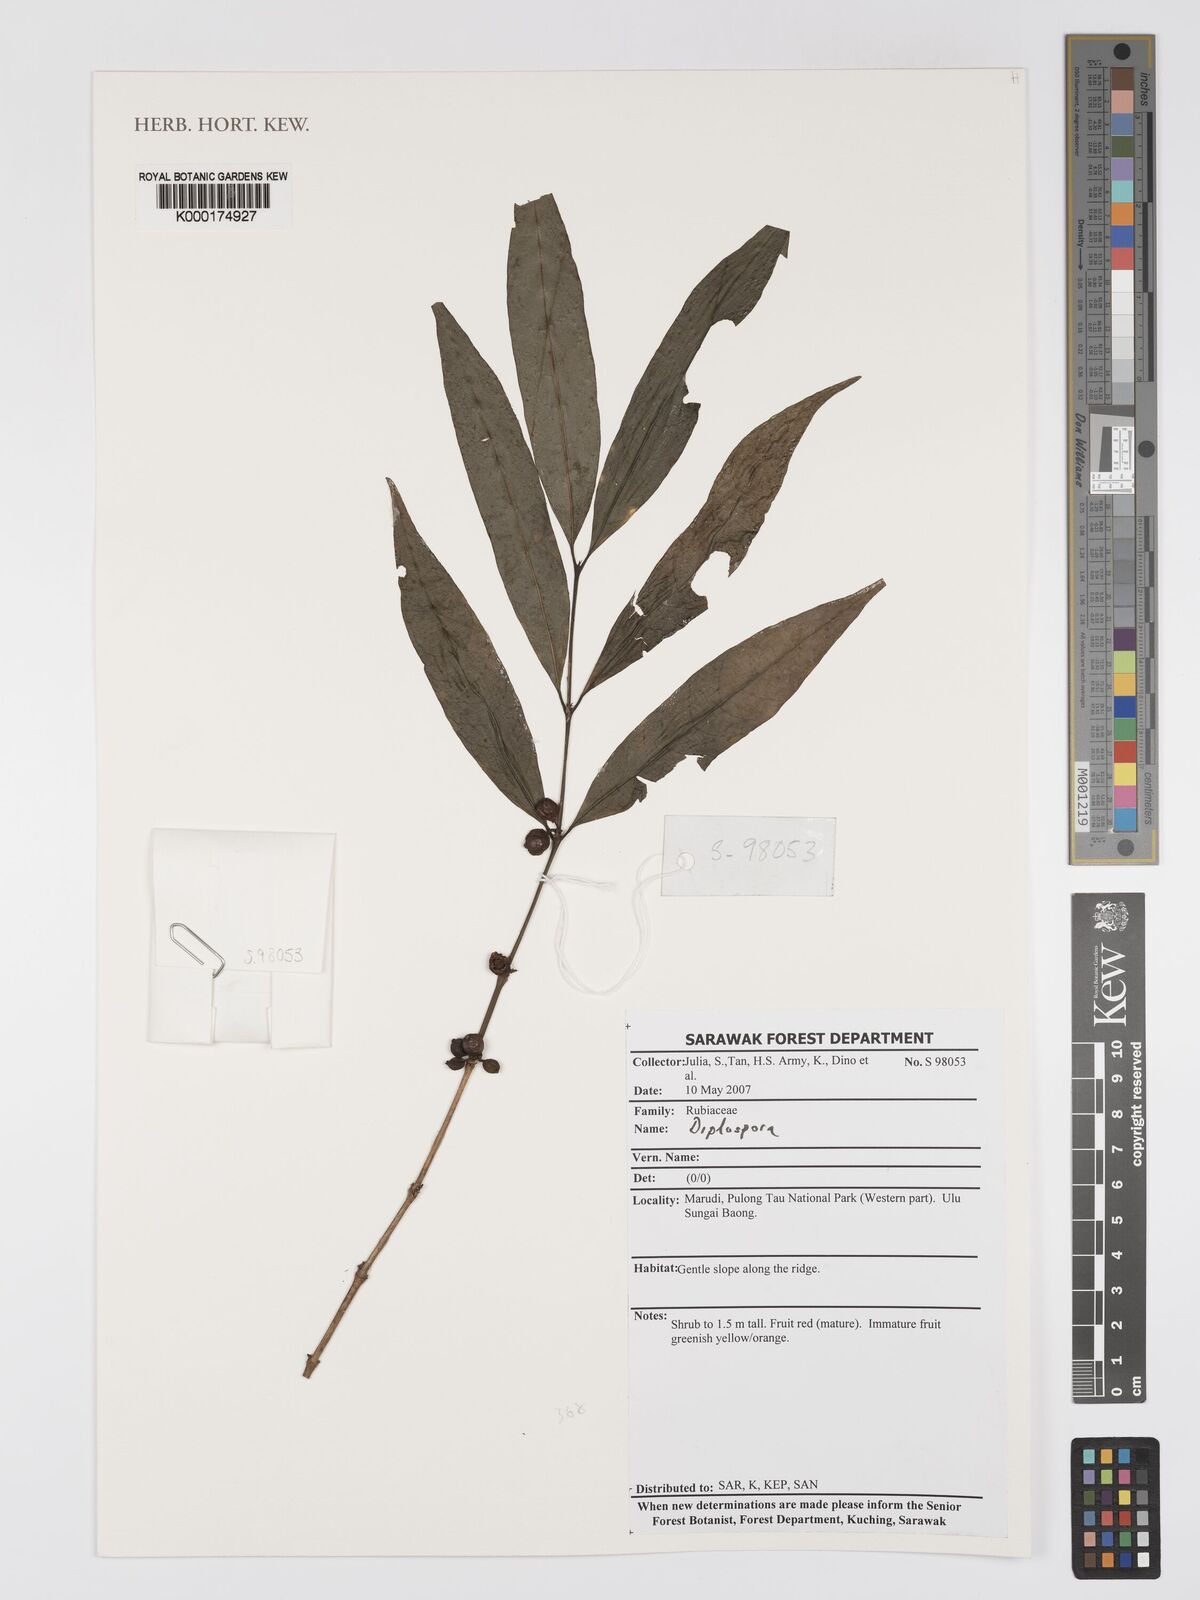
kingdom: Plantae
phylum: Tracheophyta
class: Magnoliopsida
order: Gentianales
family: Rubiaceae
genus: Diplospora
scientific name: Diplospora
